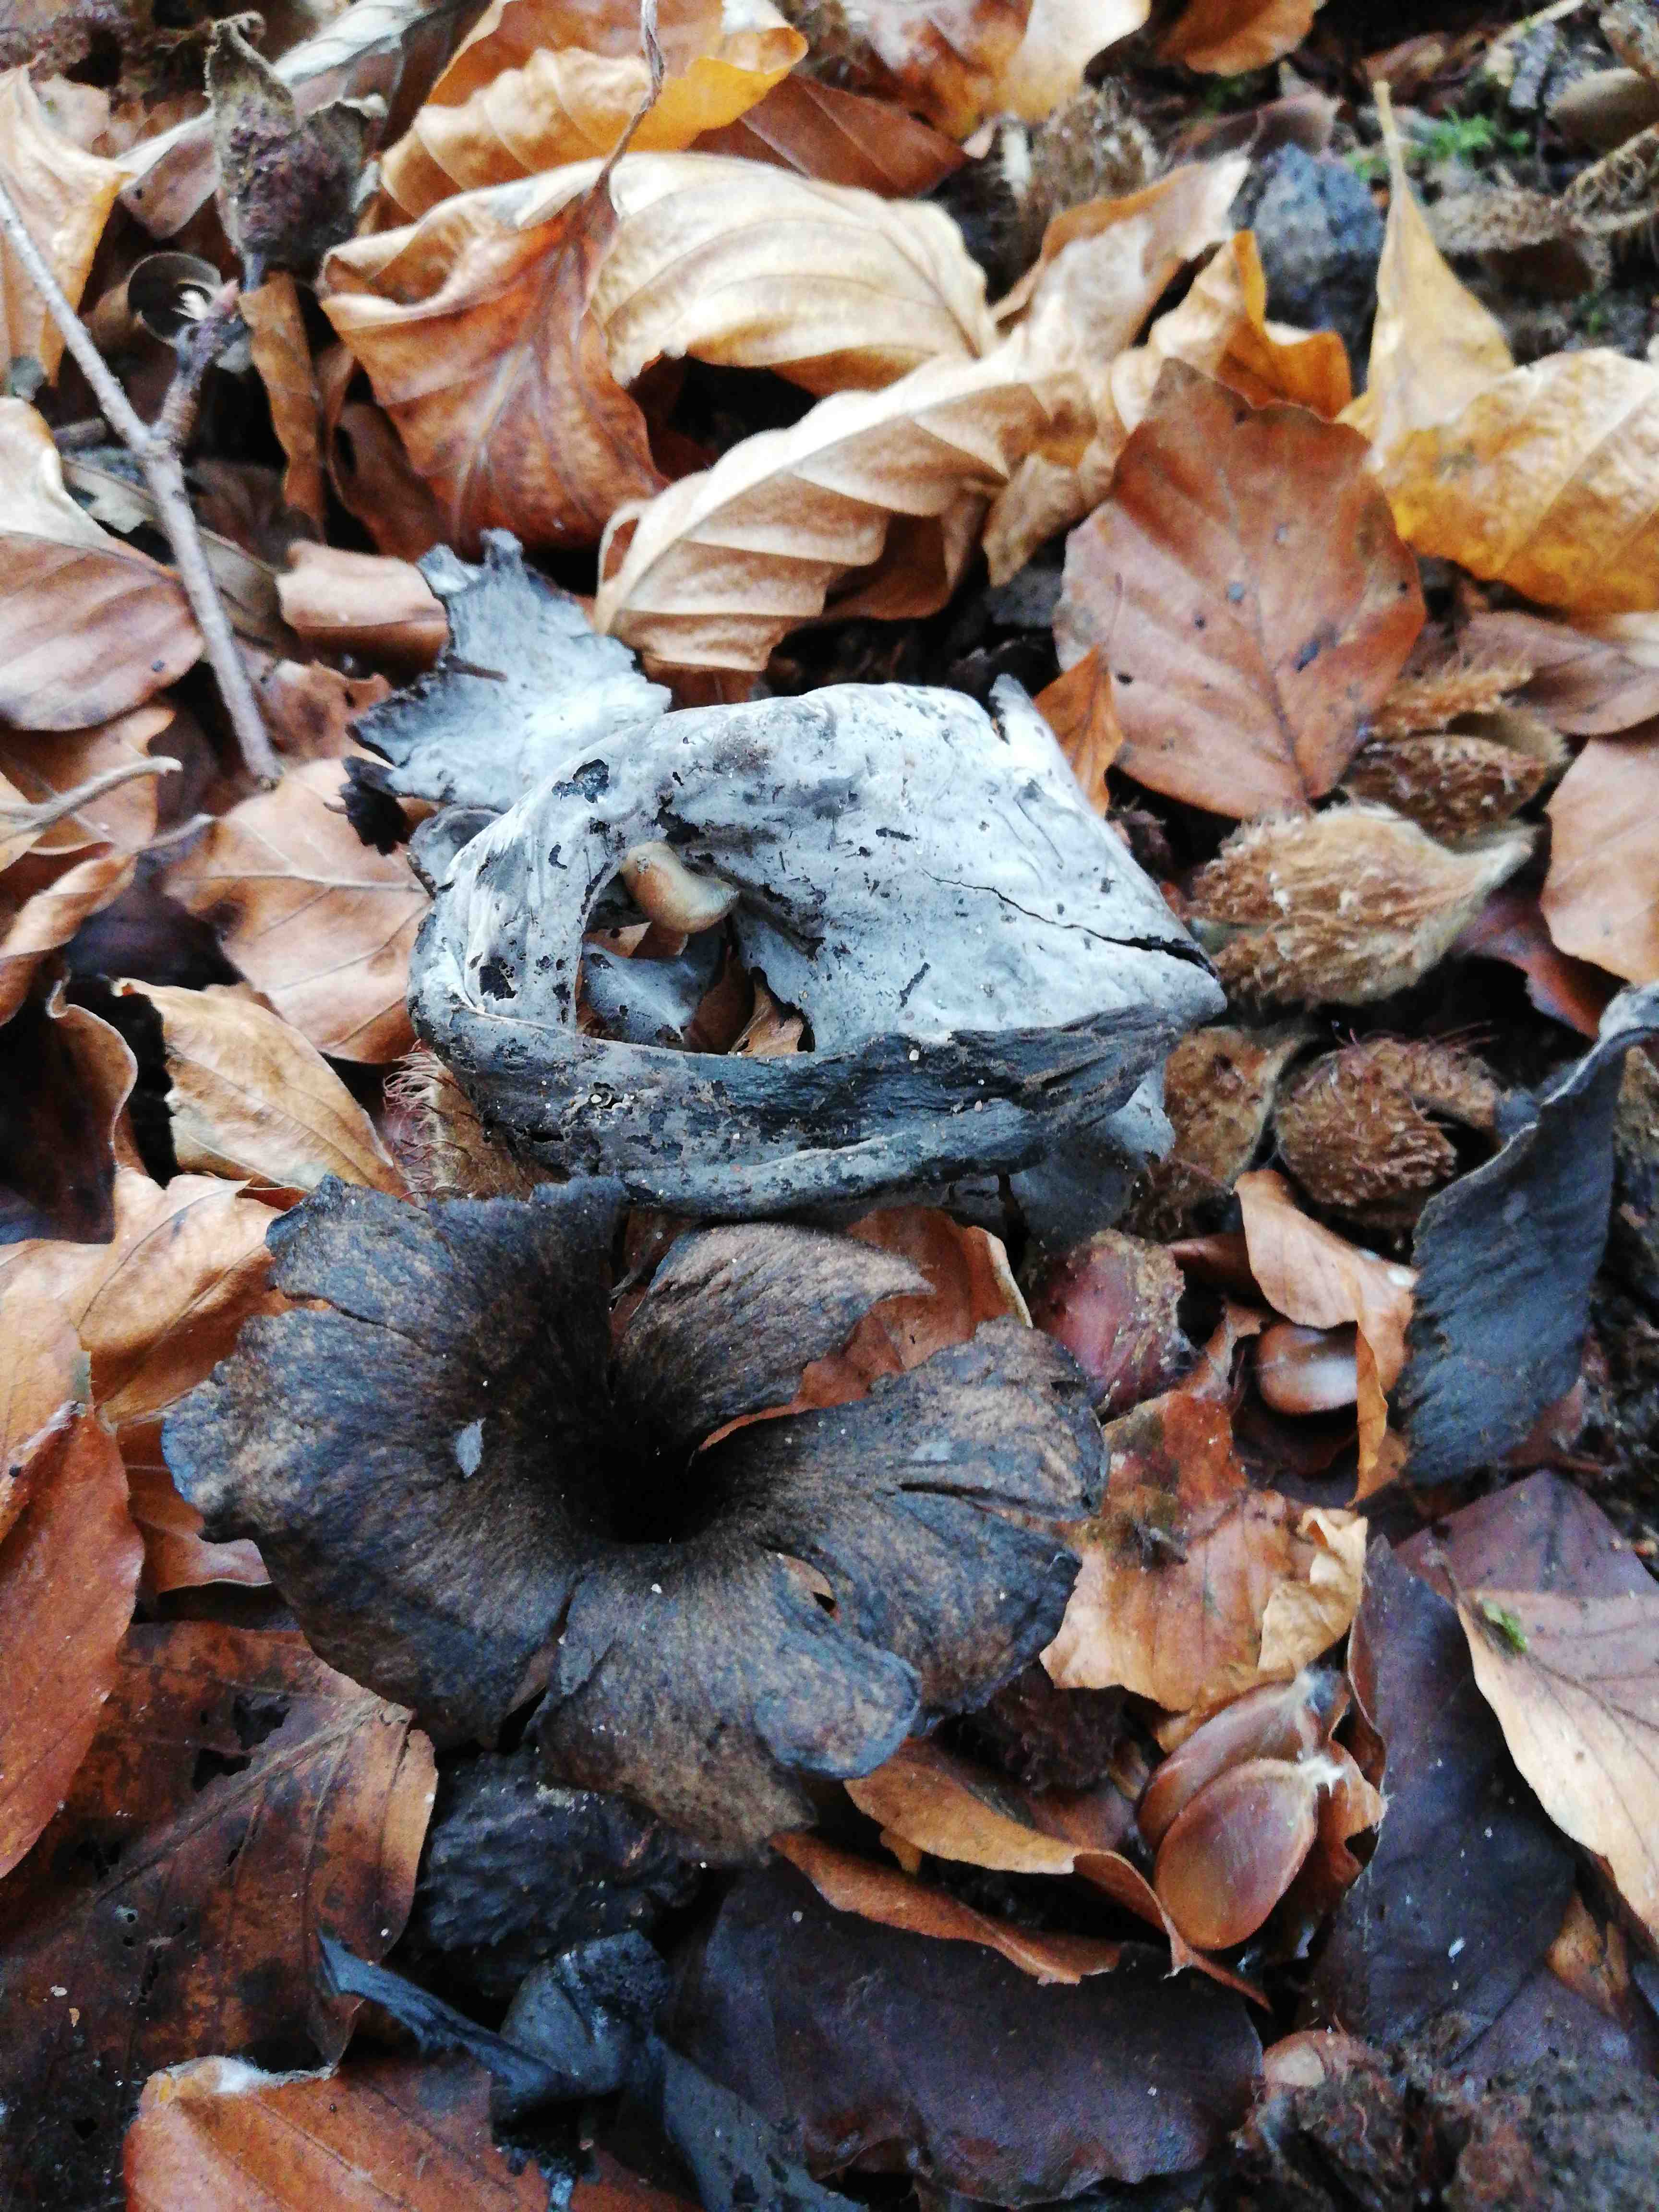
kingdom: Fungi
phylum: Basidiomycota
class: Agaricomycetes
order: Cantharellales
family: Hydnaceae
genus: Craterellus
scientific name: Craterellus cornucopioides
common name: trompetsvamp
